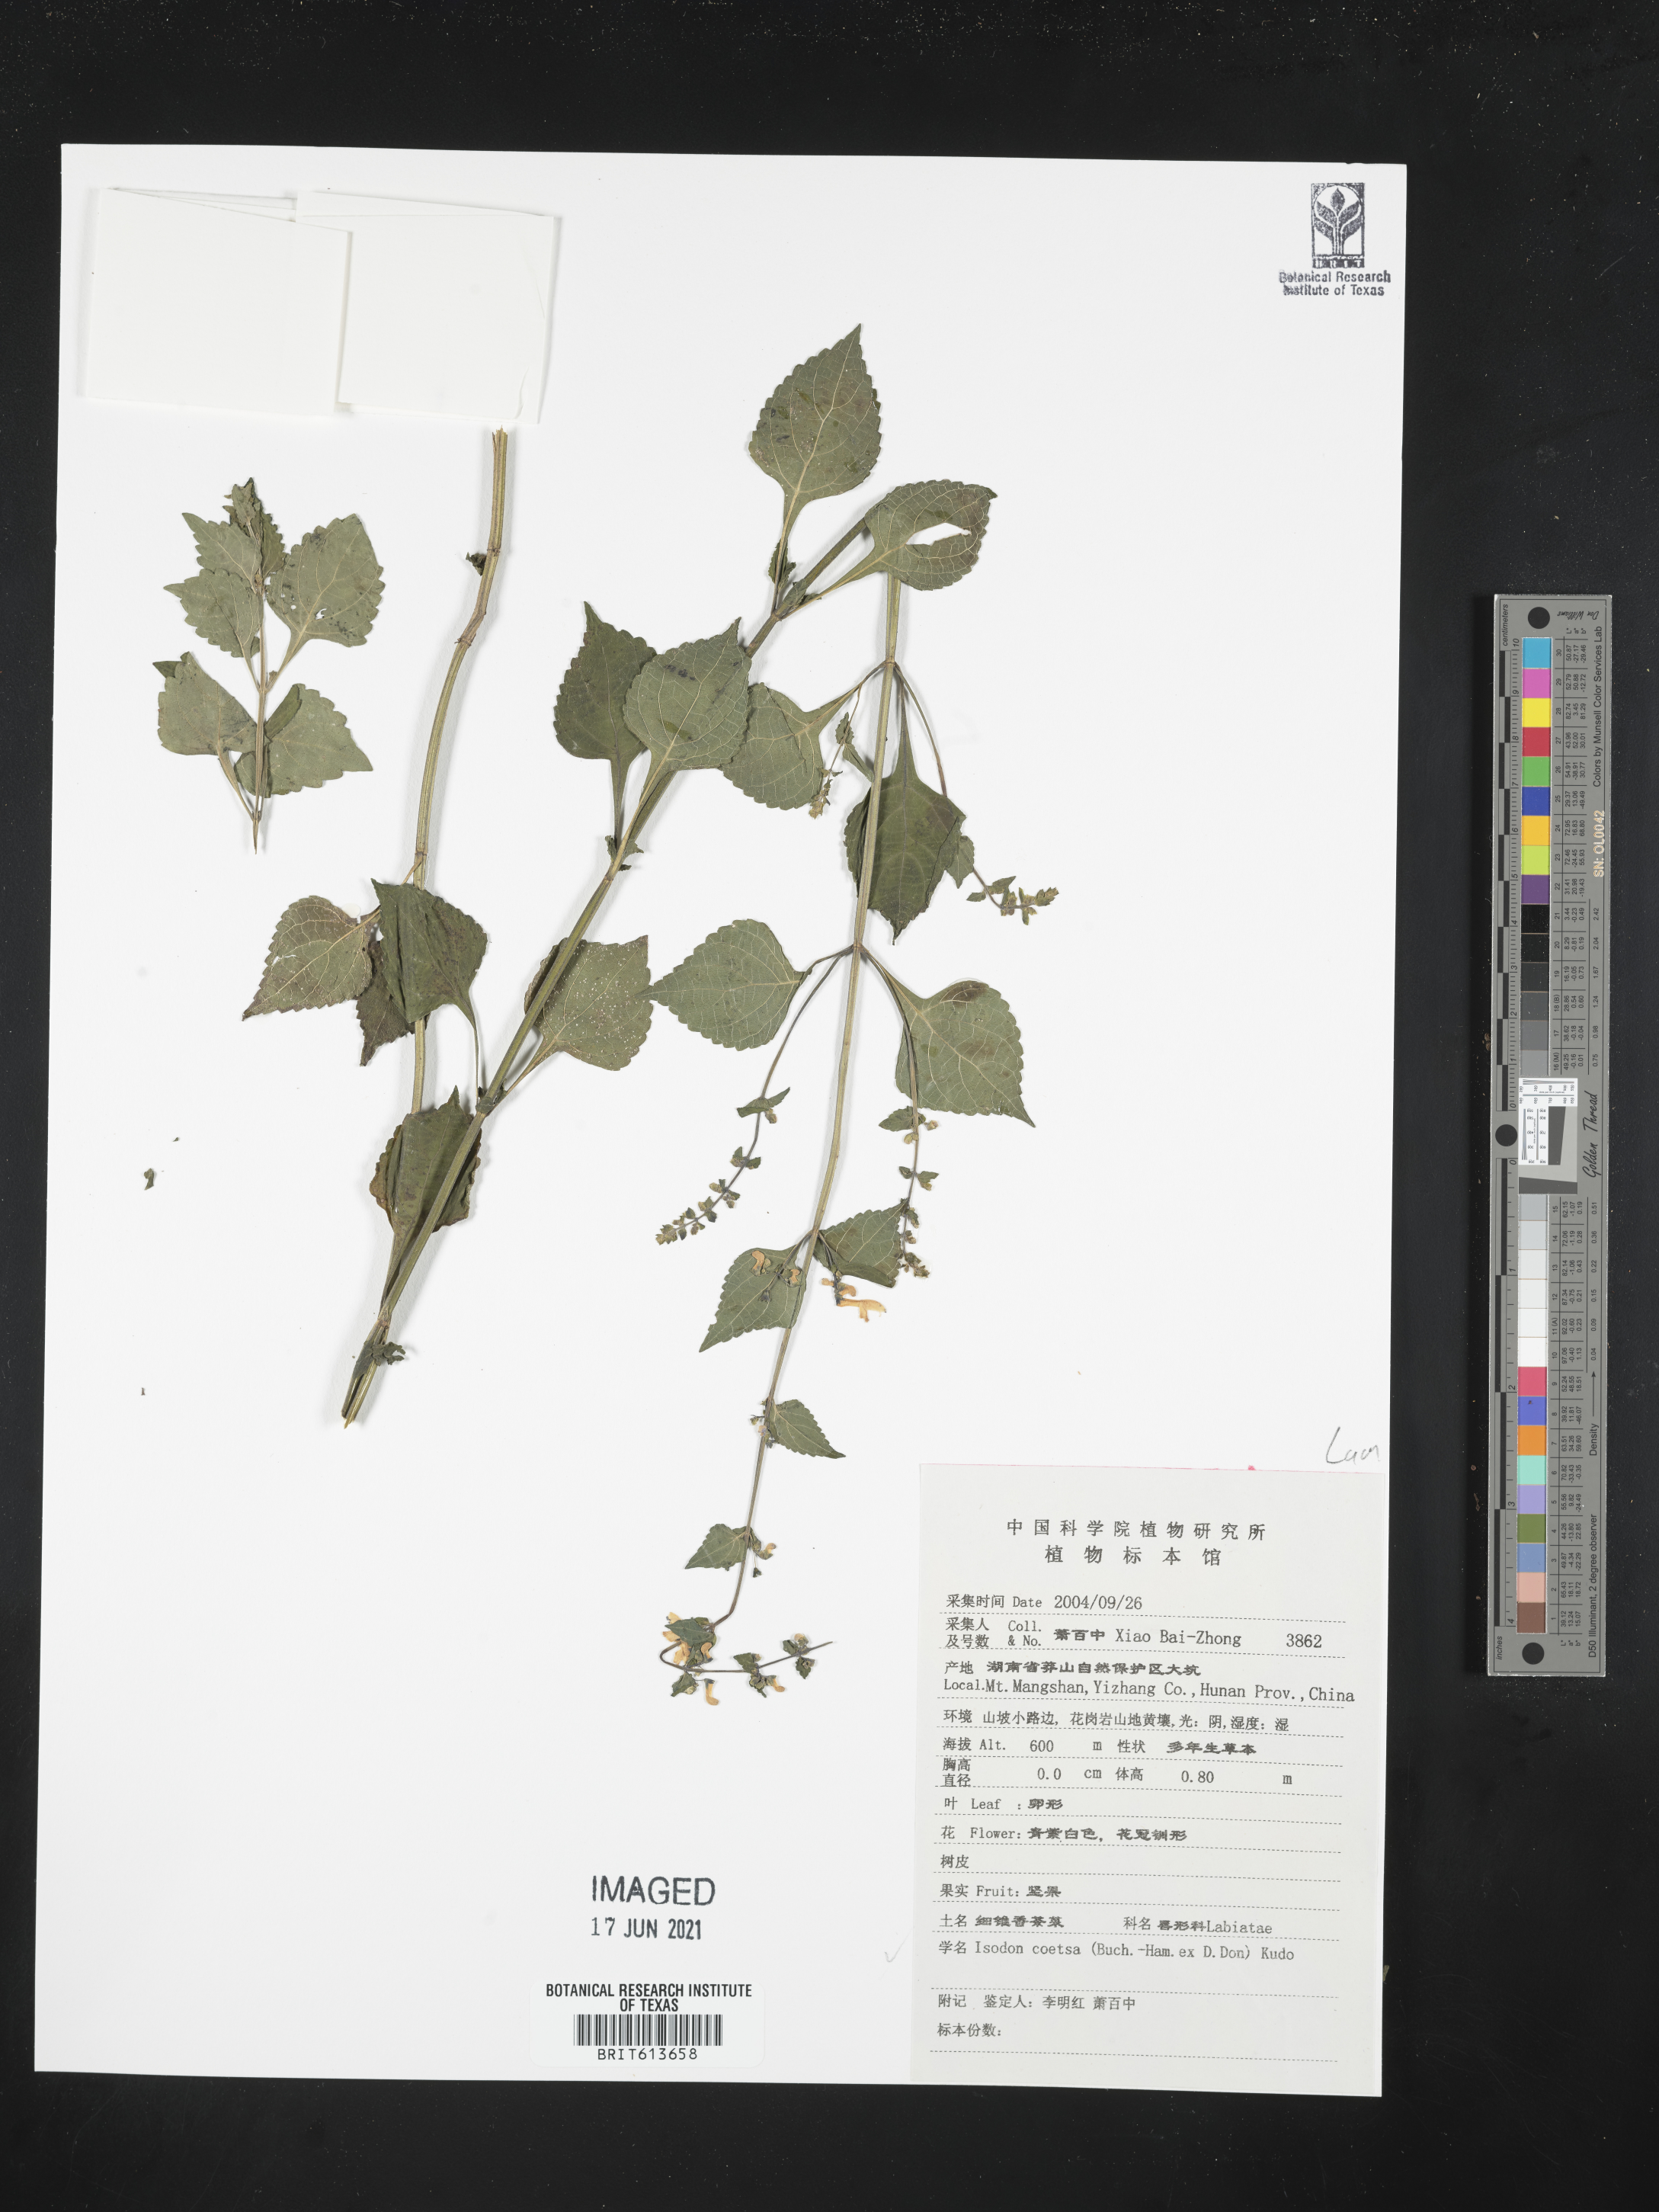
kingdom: Plantae
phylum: Tracheophyta
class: Magnoliopsida
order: Lamiales
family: Lamiaceae
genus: Isodon
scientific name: Isodon coetsa
